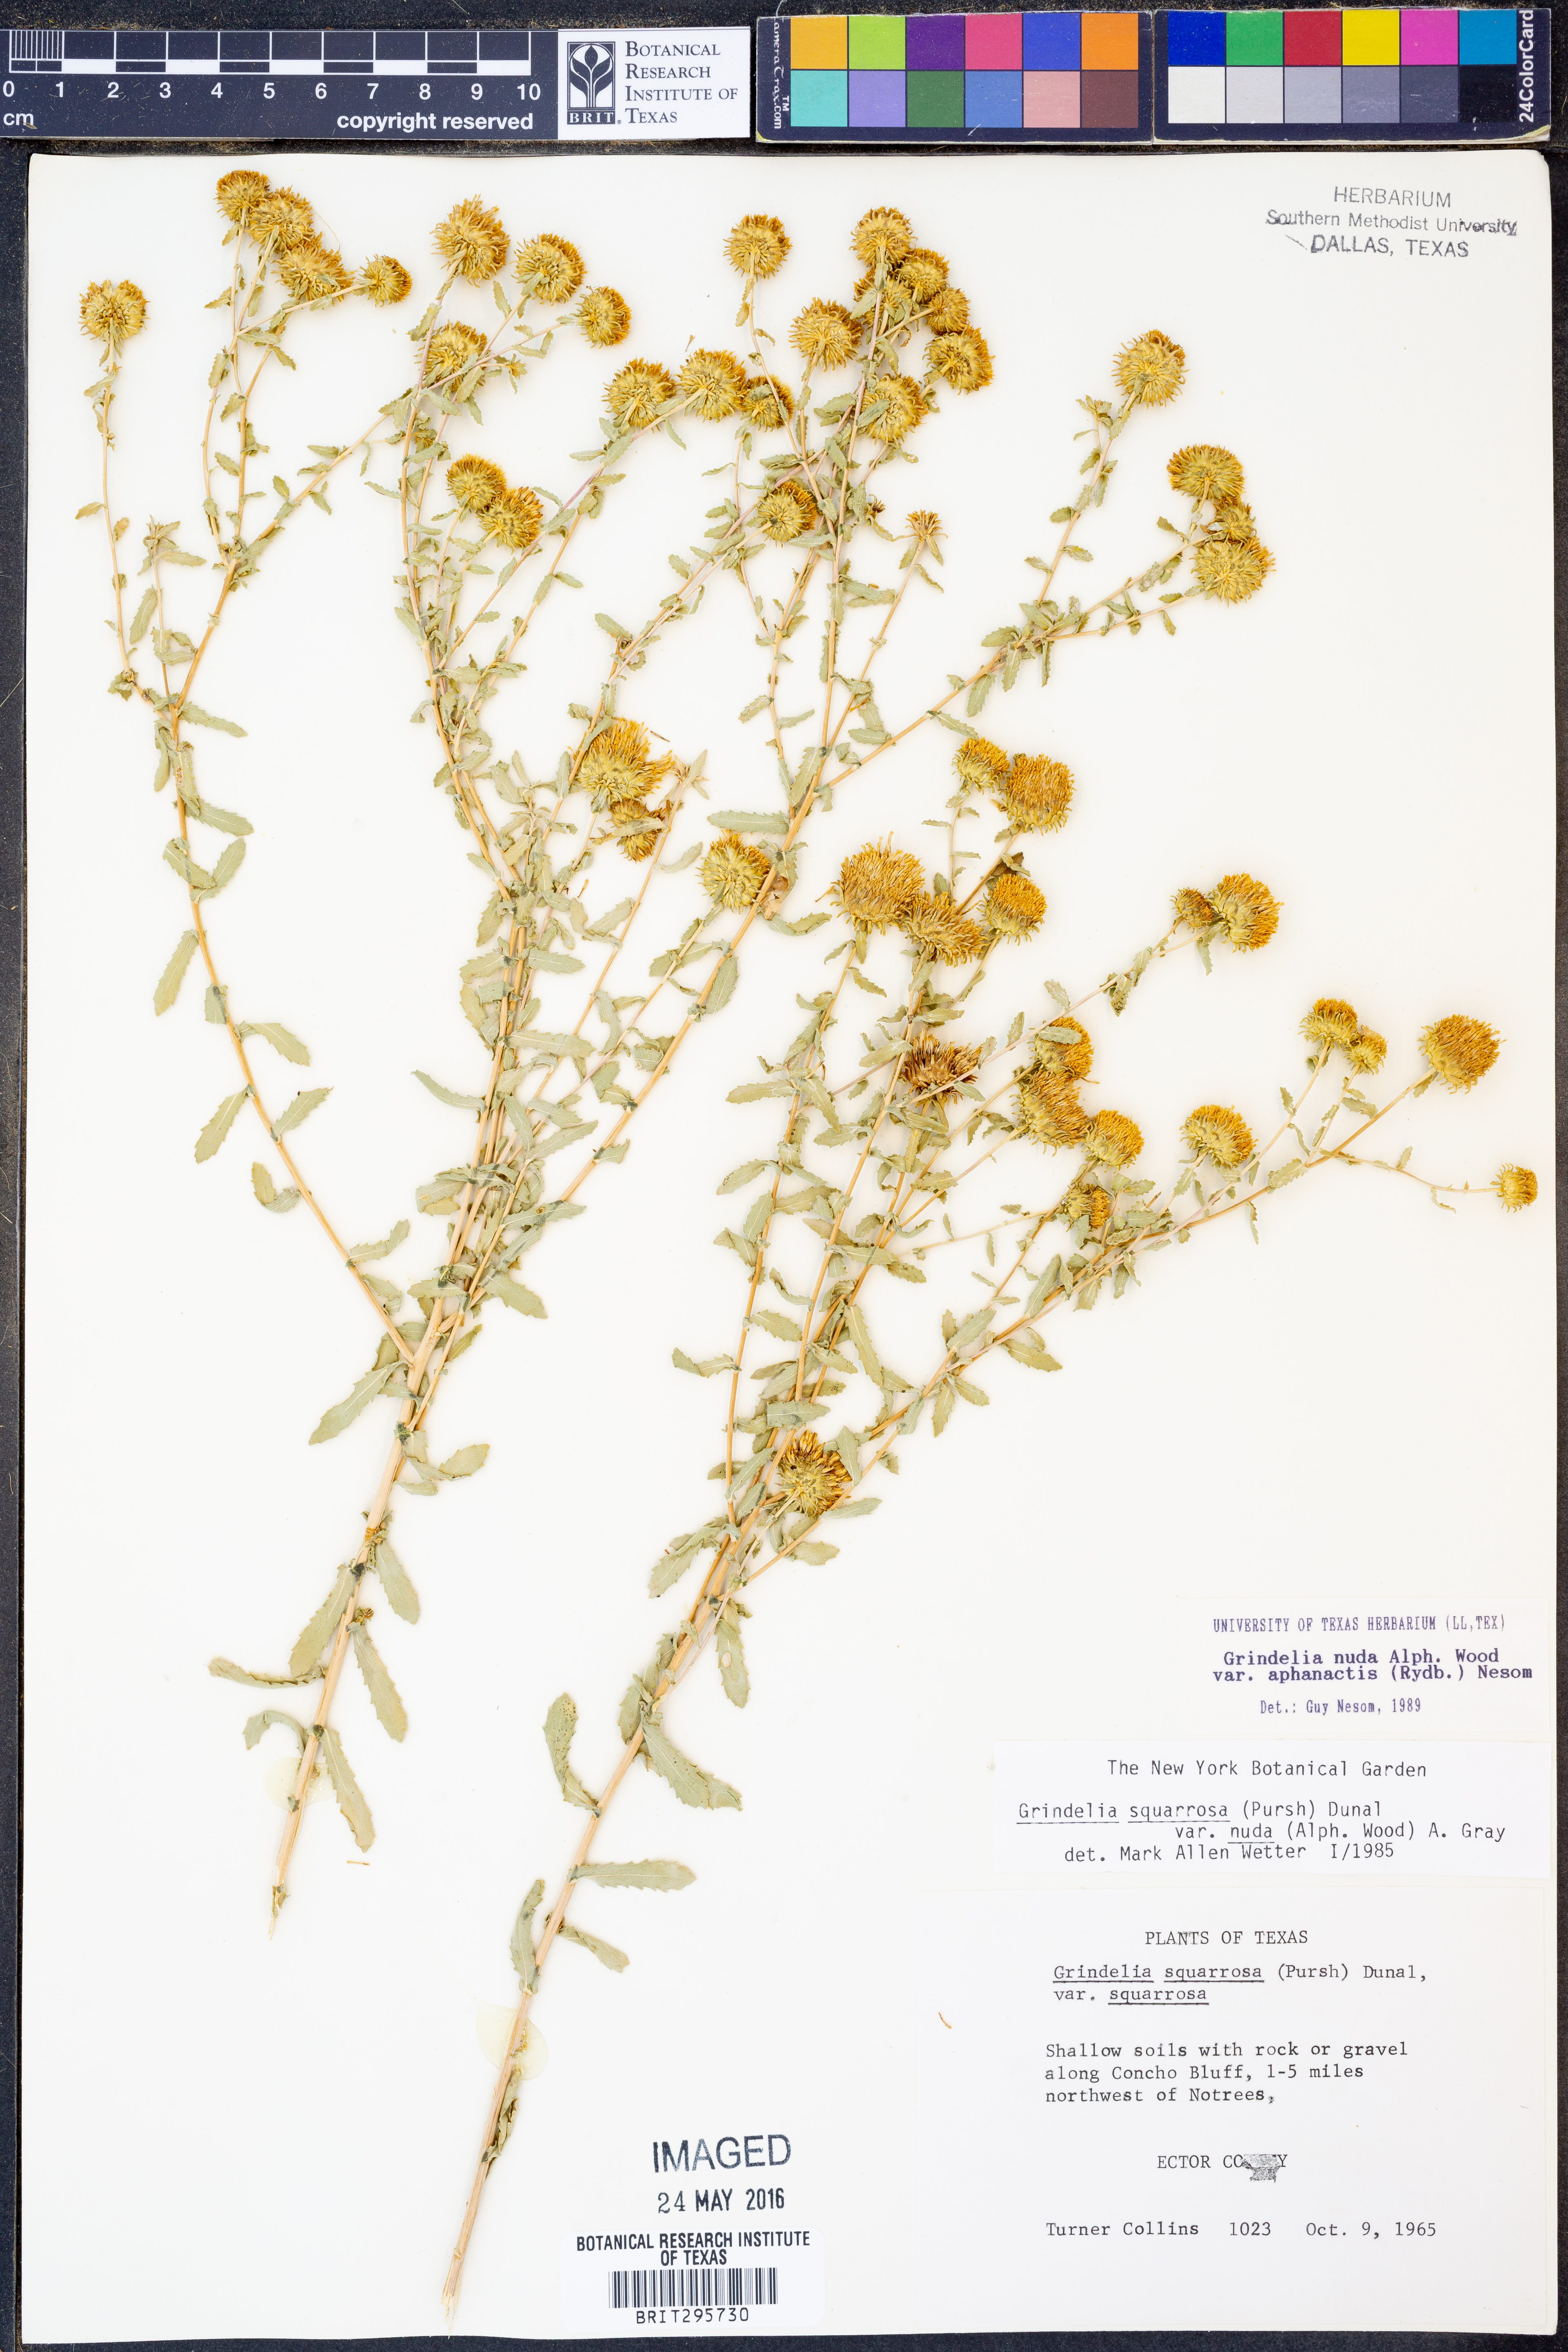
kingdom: Plantae
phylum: Tracheophyta
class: Magnoliopsida
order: Asterales
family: Asteraceae
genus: Grindelia
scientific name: Grindelia nuda
